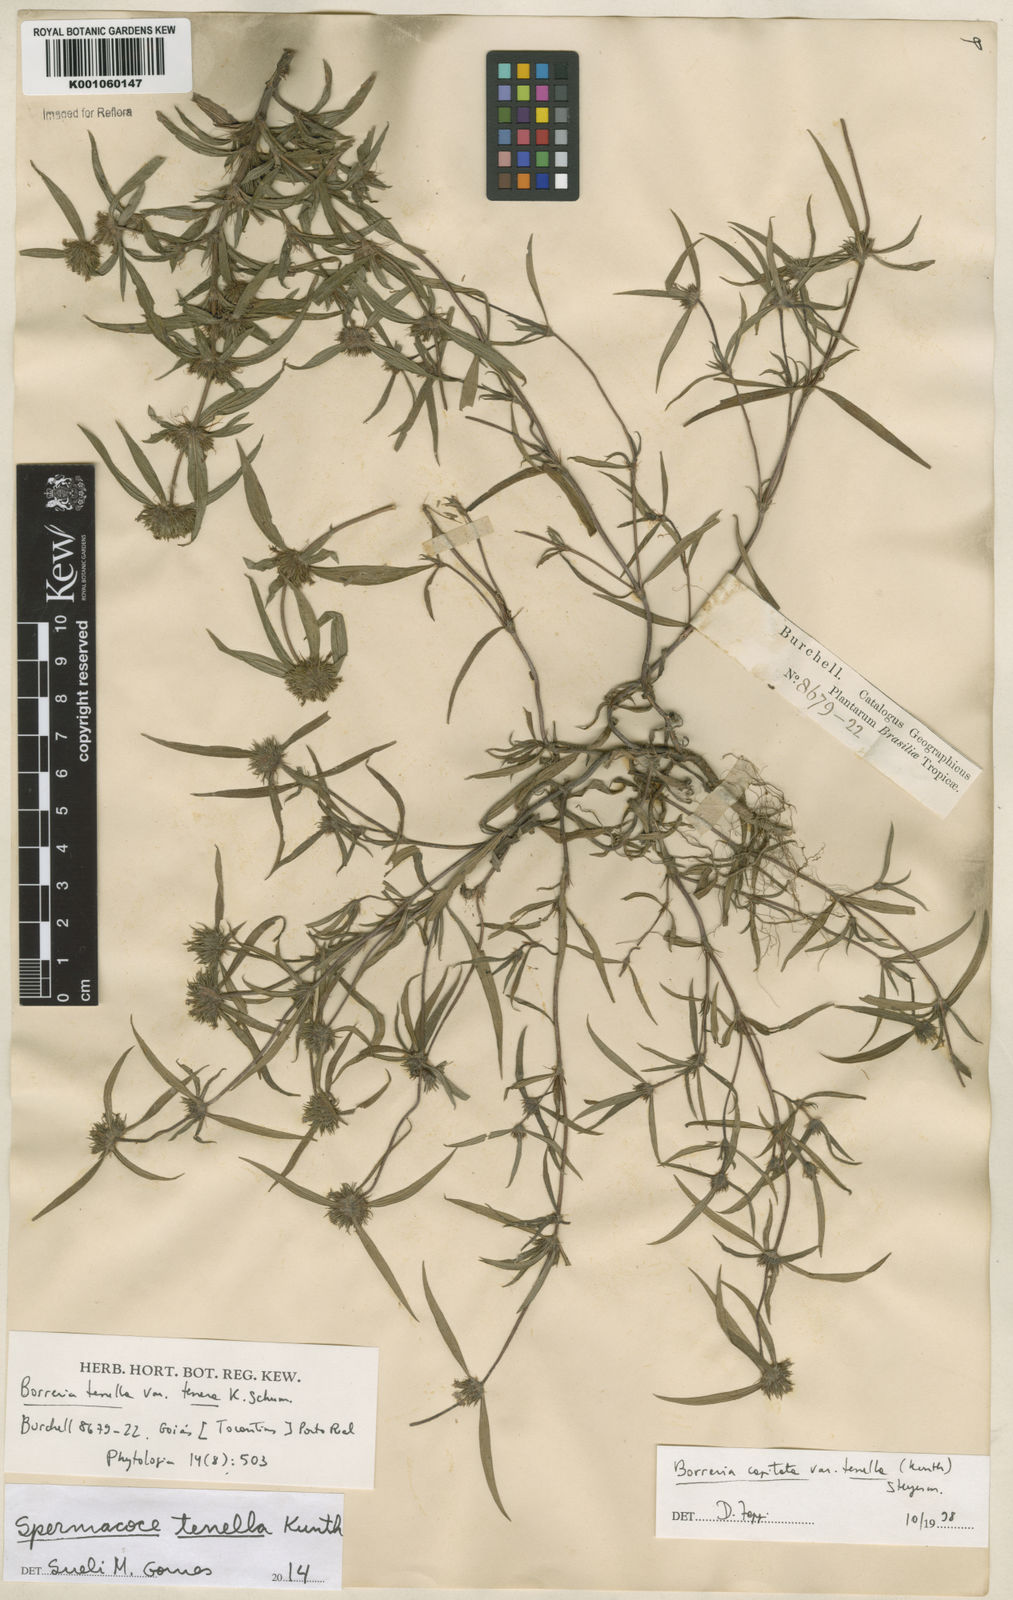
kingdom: Plantae
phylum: Tracheophyta
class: Magnoliopsida
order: Gentianales
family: Rubiaceae
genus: Spermacoce
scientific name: Spermacoce orinocensis
